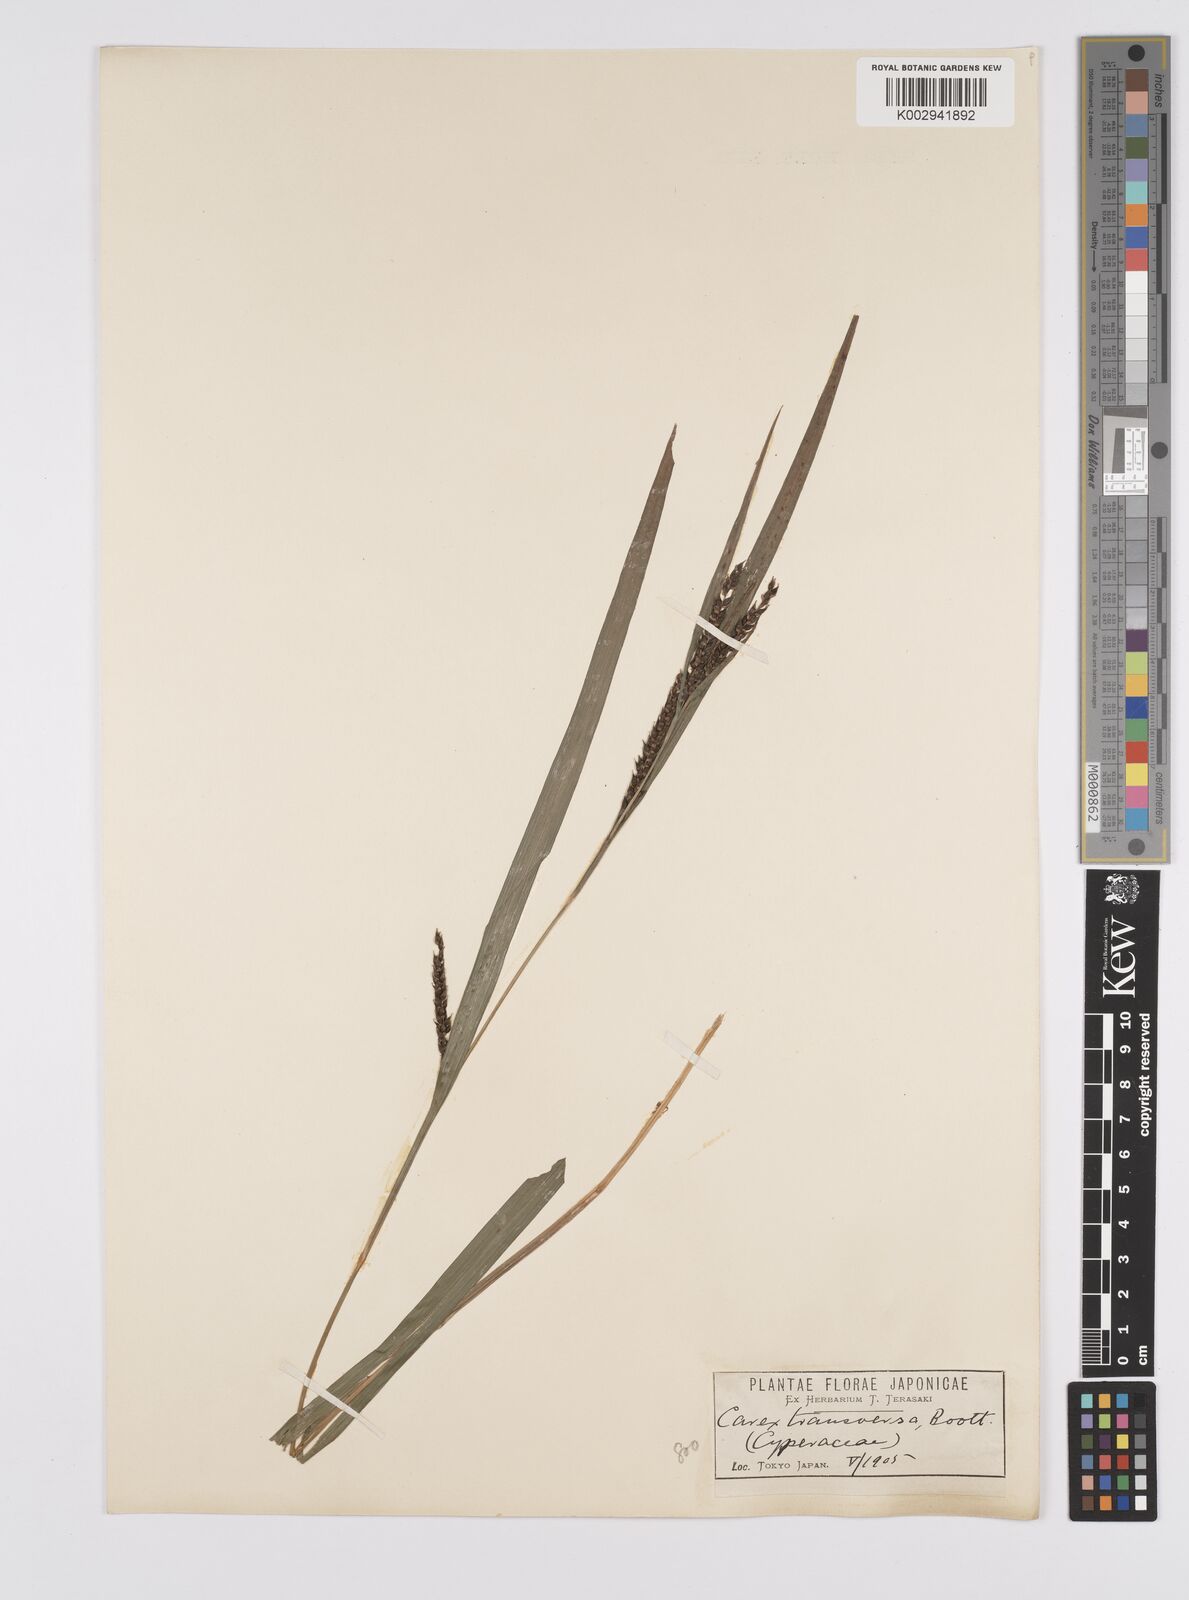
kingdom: Plantae
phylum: Tracheophyta
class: Liliopsida
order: Poales
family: Cyperaceae
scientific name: Cyperaceae
